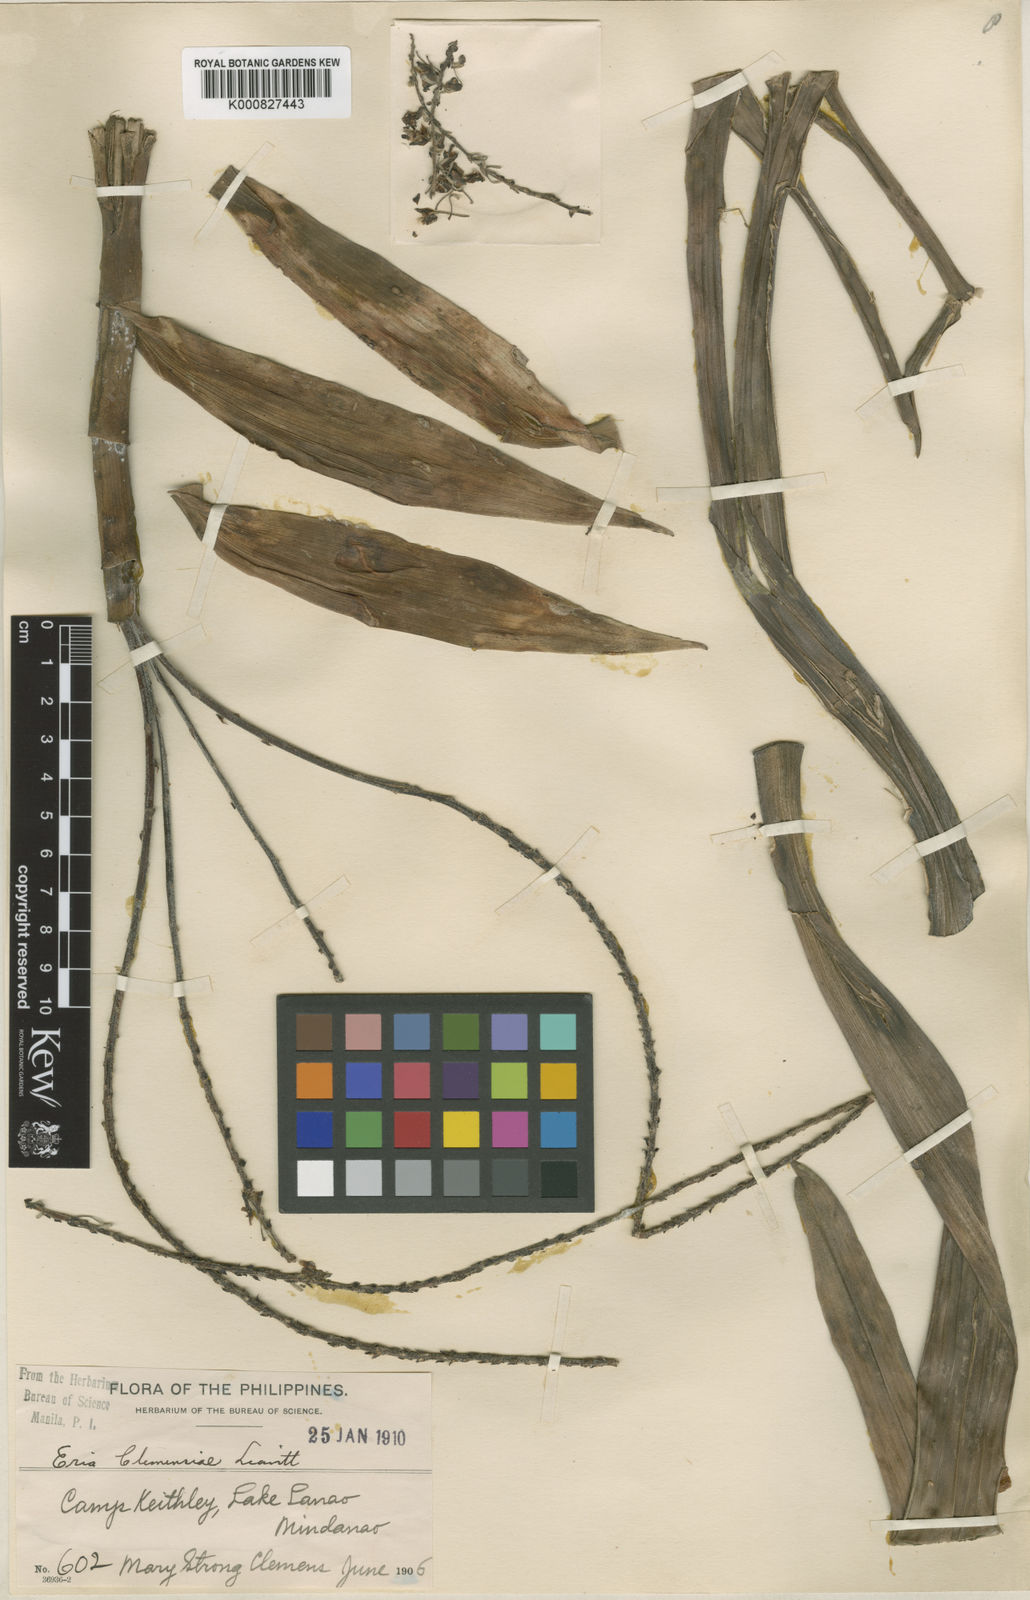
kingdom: Plantae
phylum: Tracheophyta
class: Liliopsida
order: Asparagales
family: Orchidaceae
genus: Mycaranthes
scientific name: Mycaranthes clemensiae
